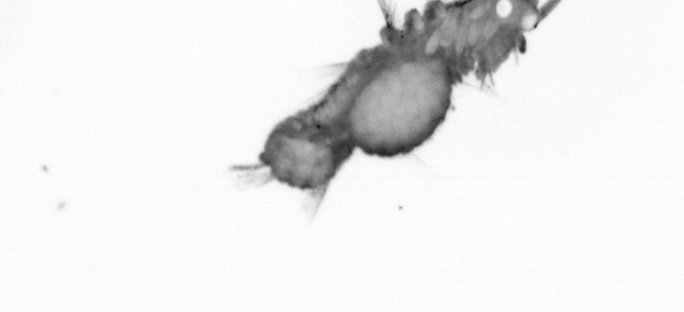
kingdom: Animalia
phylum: Annelida
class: Polychaeta
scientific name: Polychaeta
